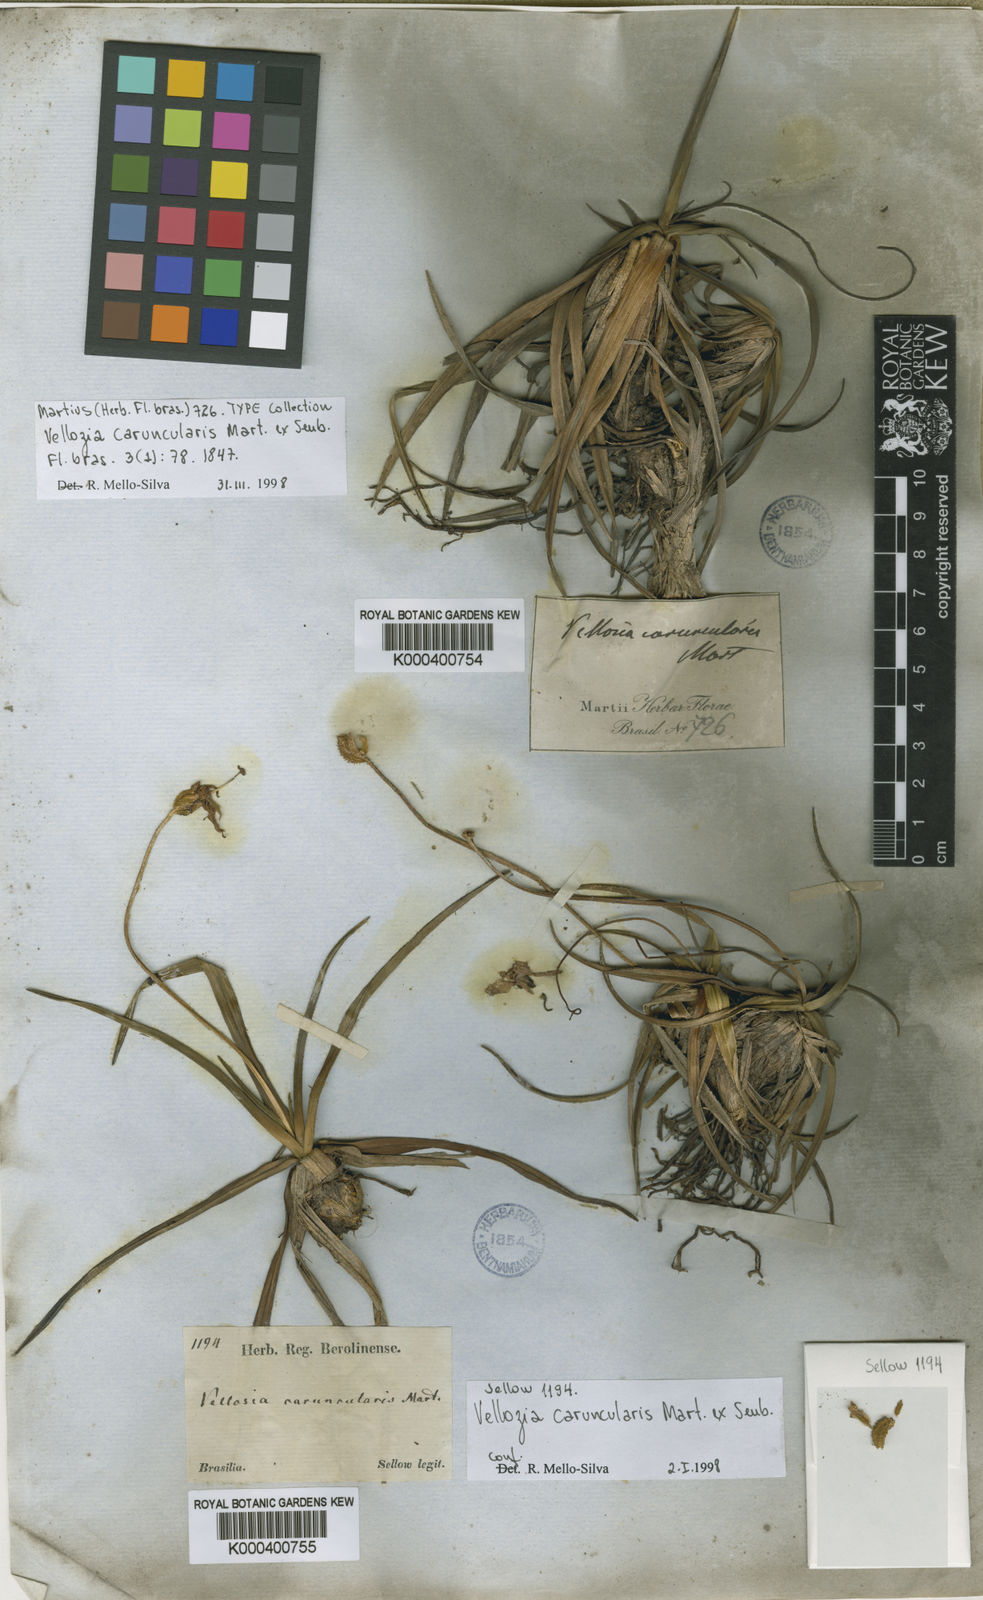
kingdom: Plantae
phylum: Tracheophyta
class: Liliopsida
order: Pandanales
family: Velloziaceae
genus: Vellozia
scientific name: Vellozia caruncularis
